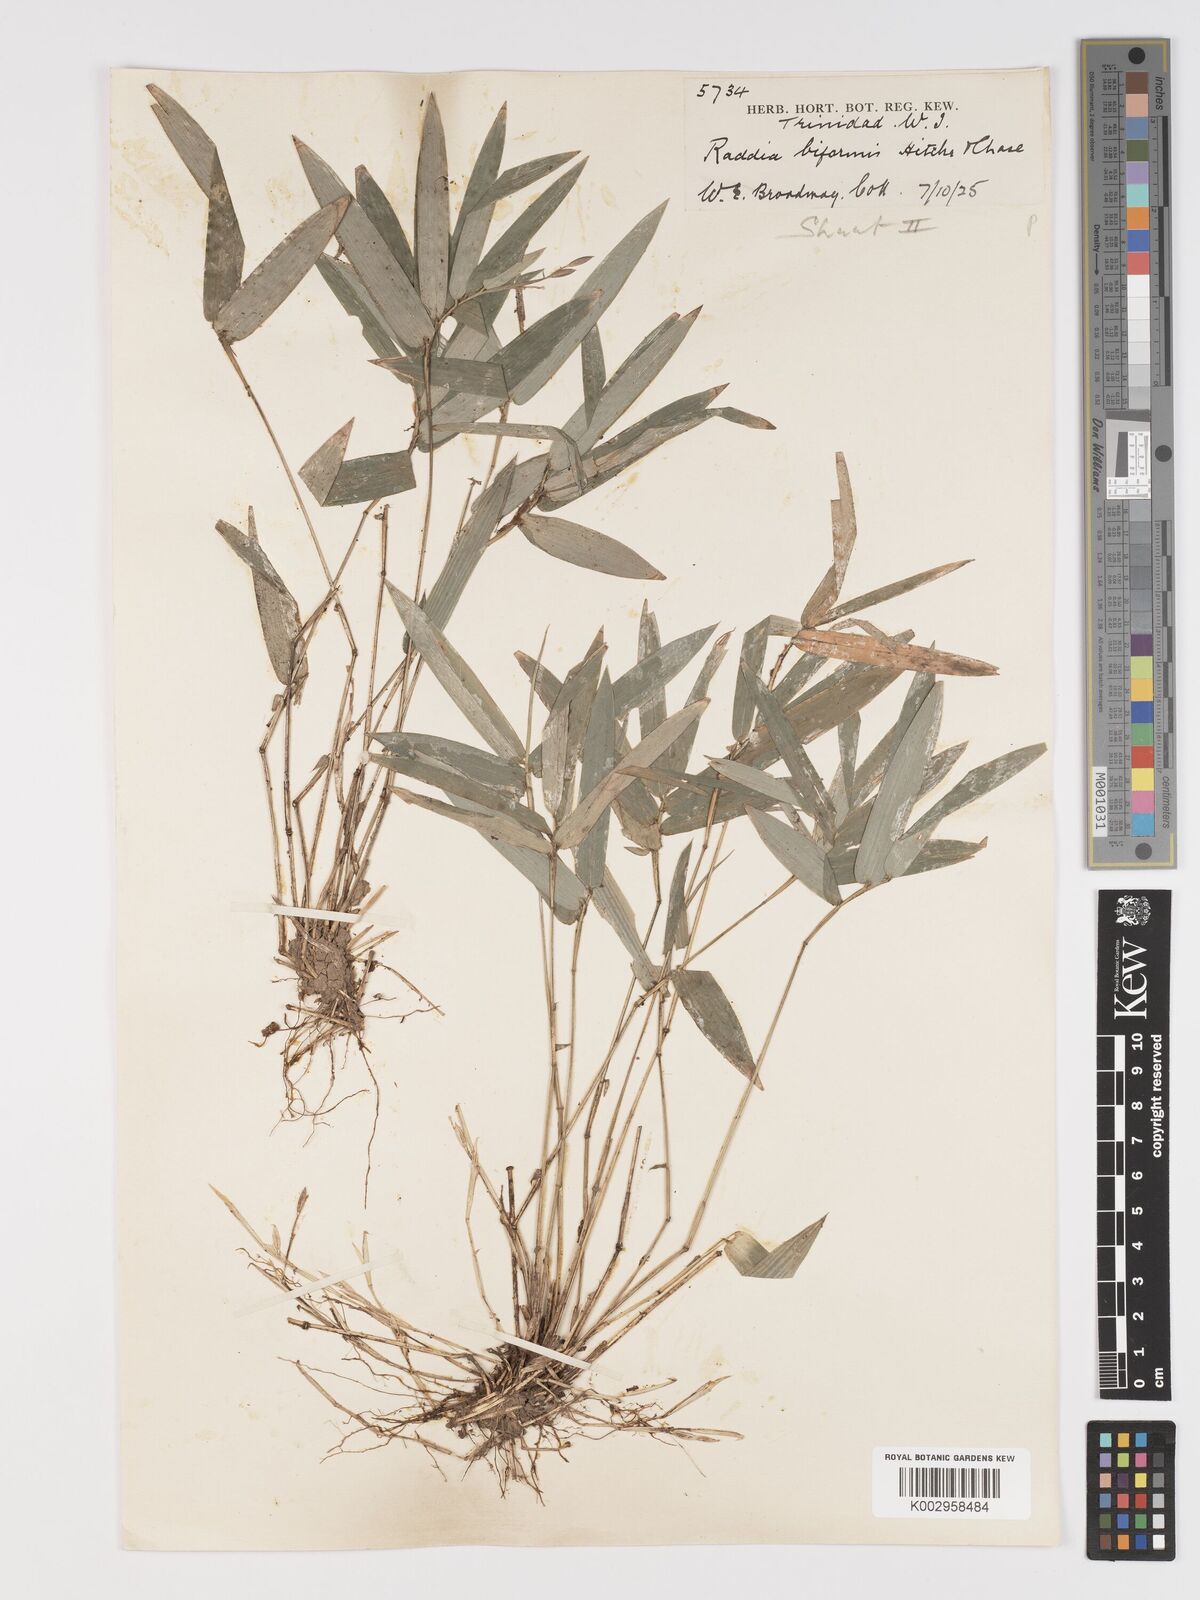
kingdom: Plantae
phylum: Tracheophyta
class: Liliopsida
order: Poales
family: Poaceae
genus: Piresia
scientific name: Piresia sympodica
